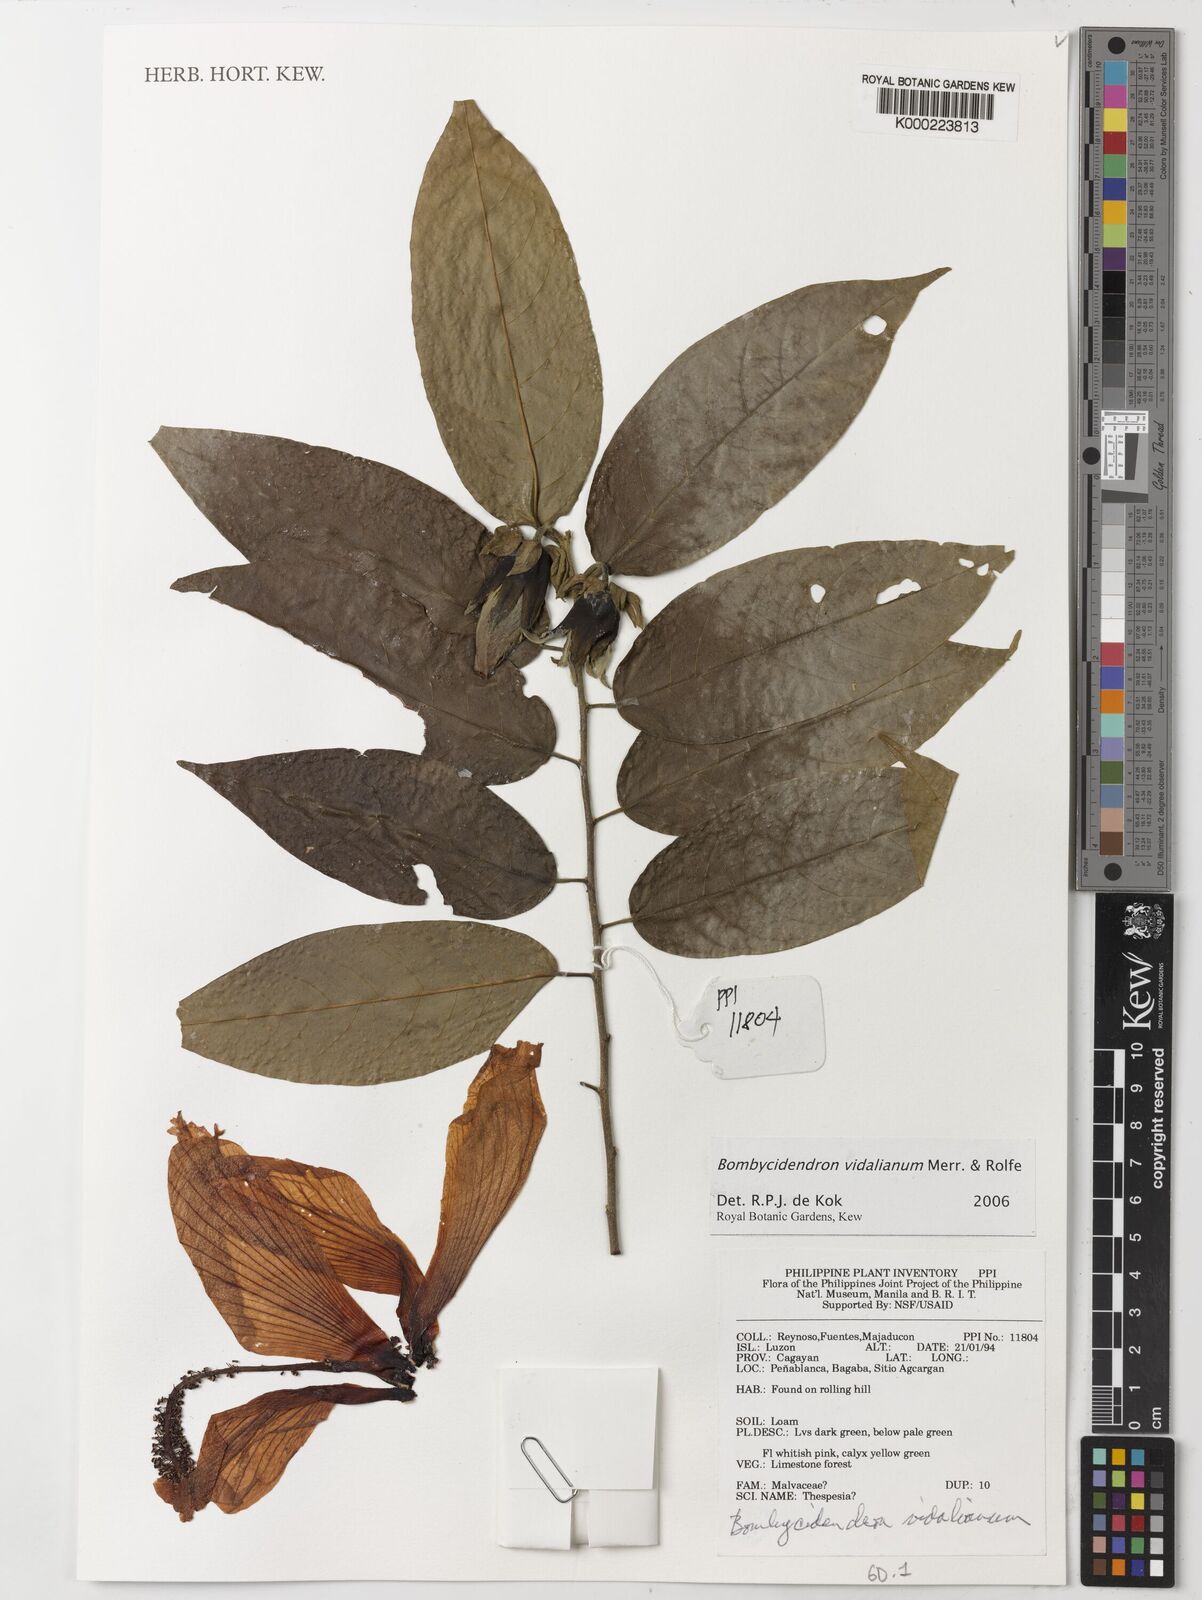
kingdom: Plantae
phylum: Tracheophyta
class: Magnoliopsida
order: Malvales
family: Malvaceae
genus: Hibiscus
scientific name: Hibiscus campylosiphon
